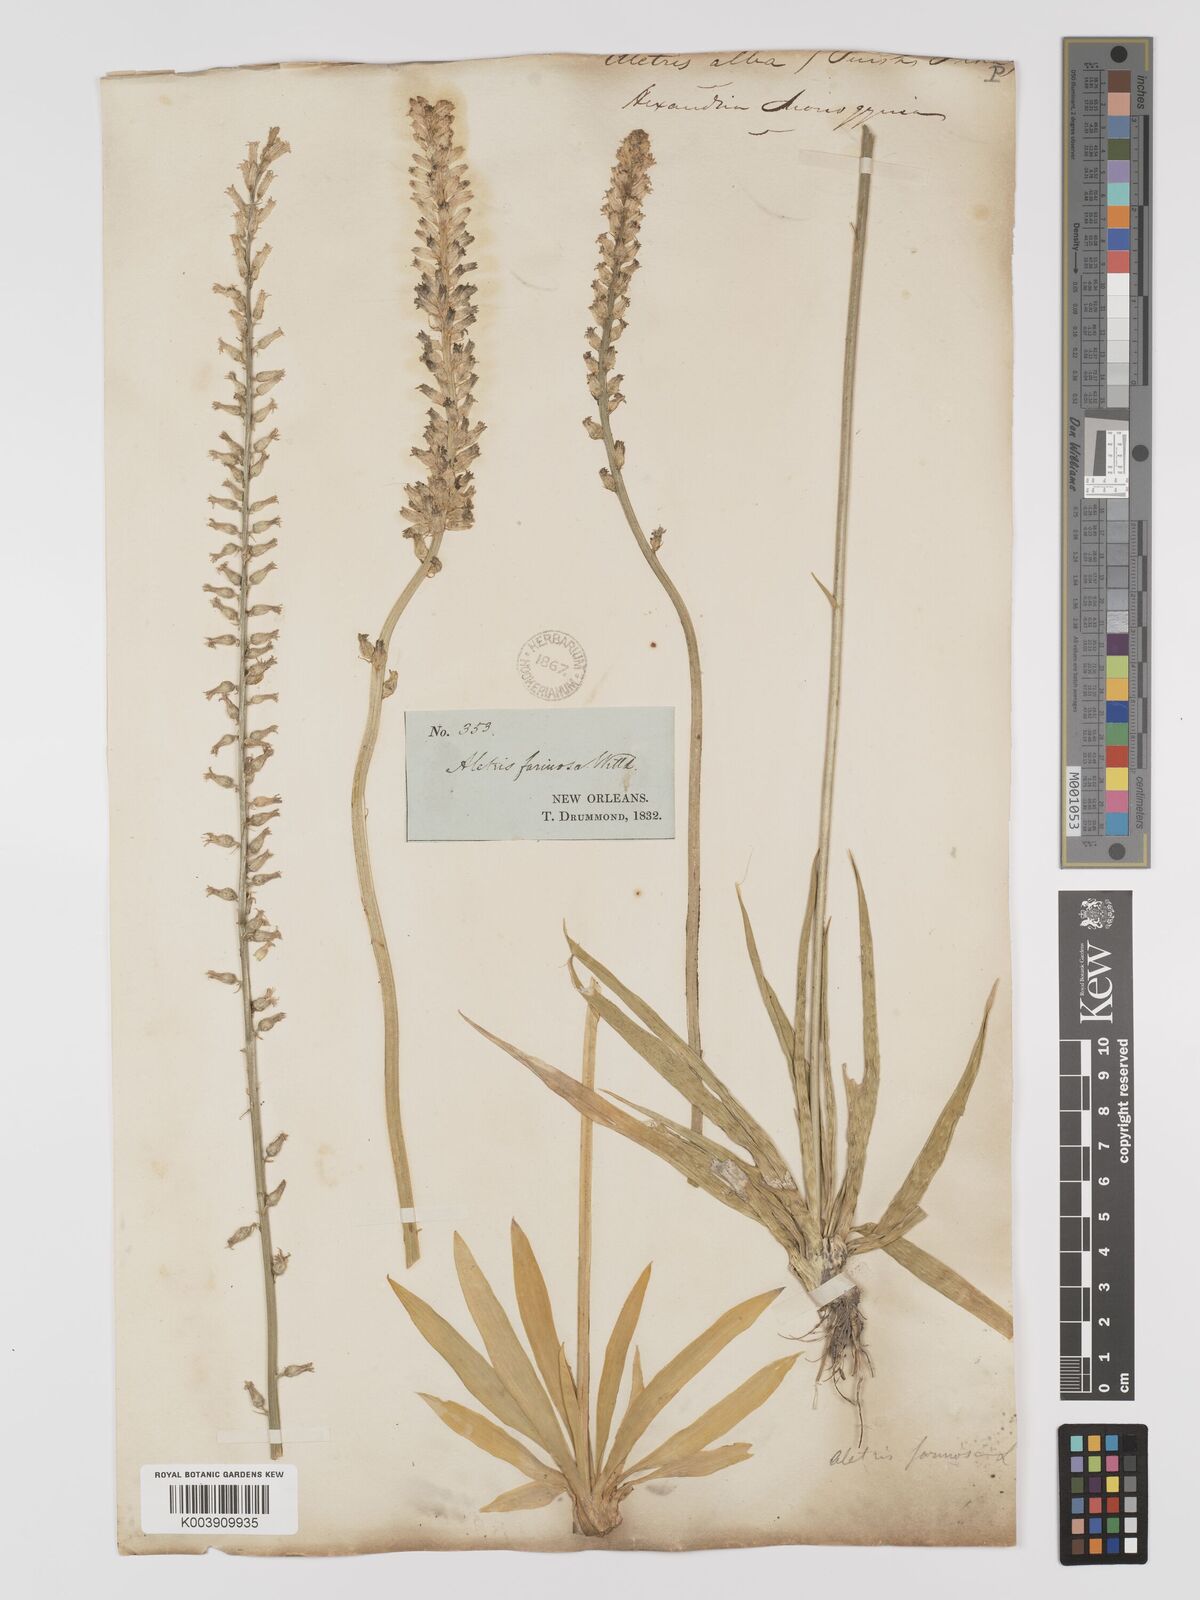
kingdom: Plantae
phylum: Tracheophyta
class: Liliopsida
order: Dioscoreales
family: Nartheciaceae
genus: Aletris
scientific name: Aletris farinosa
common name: Colicroot
